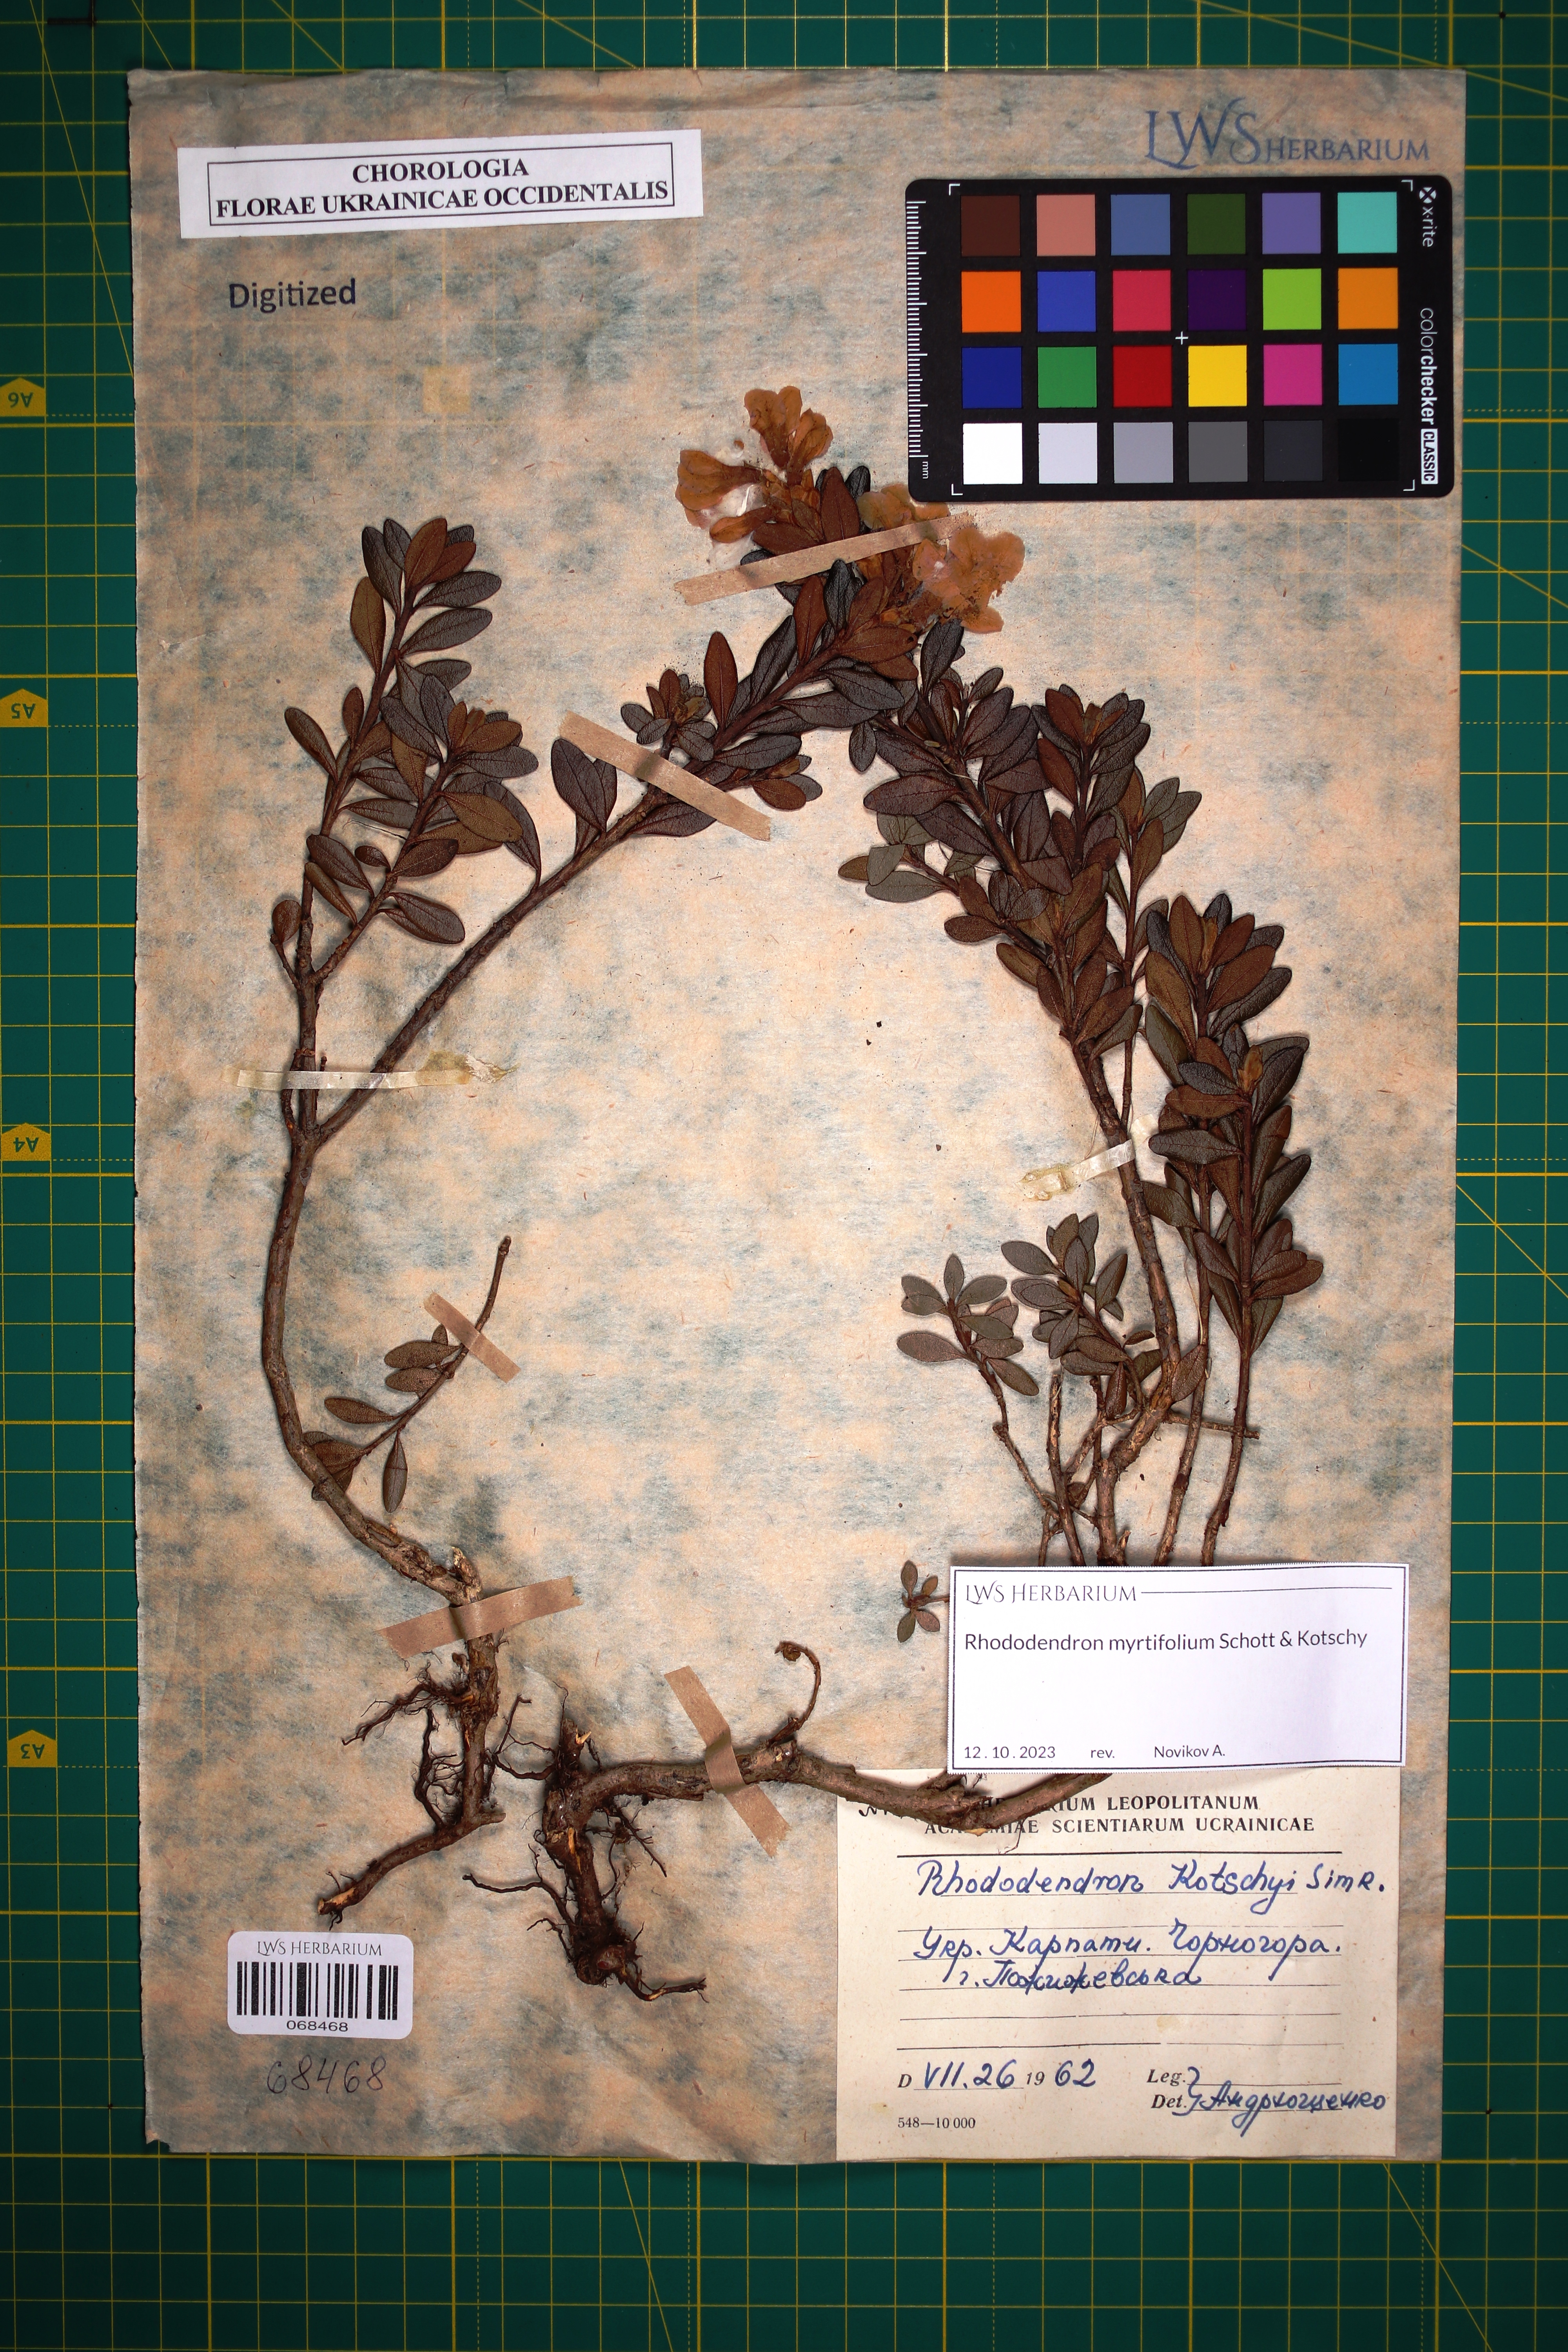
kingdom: Plantae
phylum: Tracheophyta
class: Magnoliopsida
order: Ericales
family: Ericaceae
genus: Rhododendron
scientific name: Rhododendron kotschyi
